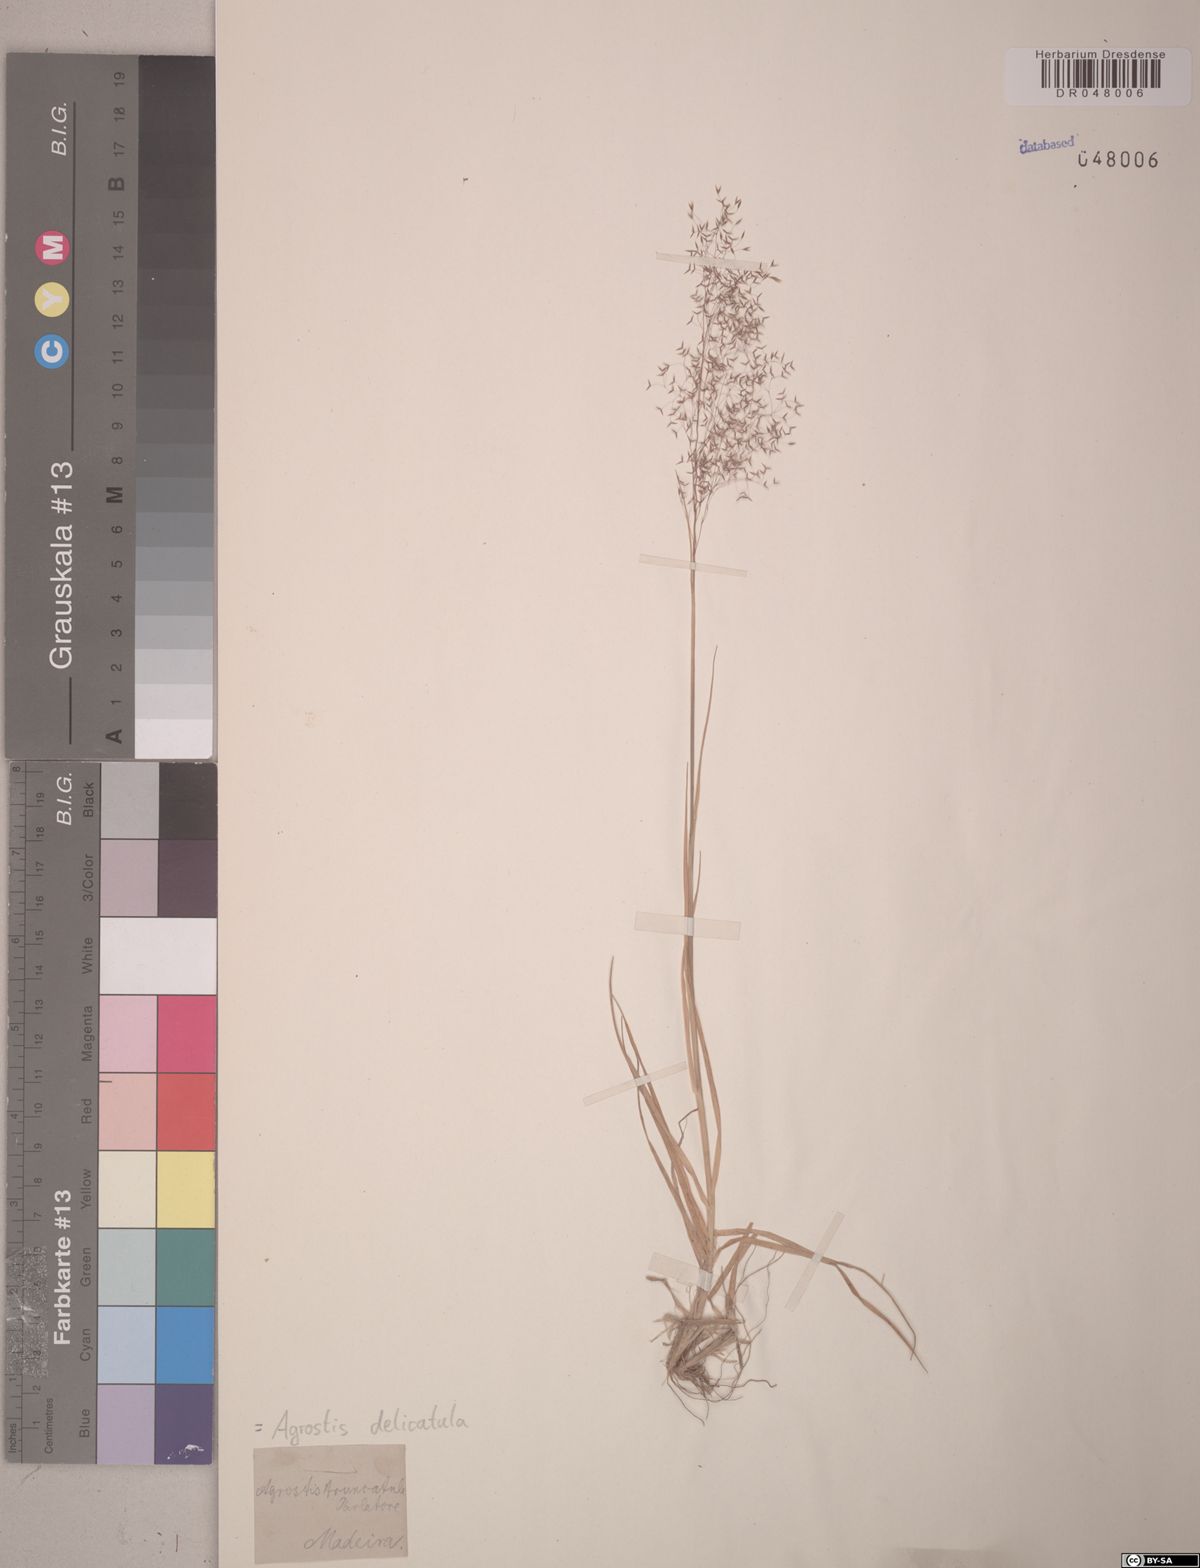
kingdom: Plantae
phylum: Tracheophyta
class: Liliopsida
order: Poales
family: Poaceae
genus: Agrostis
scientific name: Agrostis castellana
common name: Highland bent
